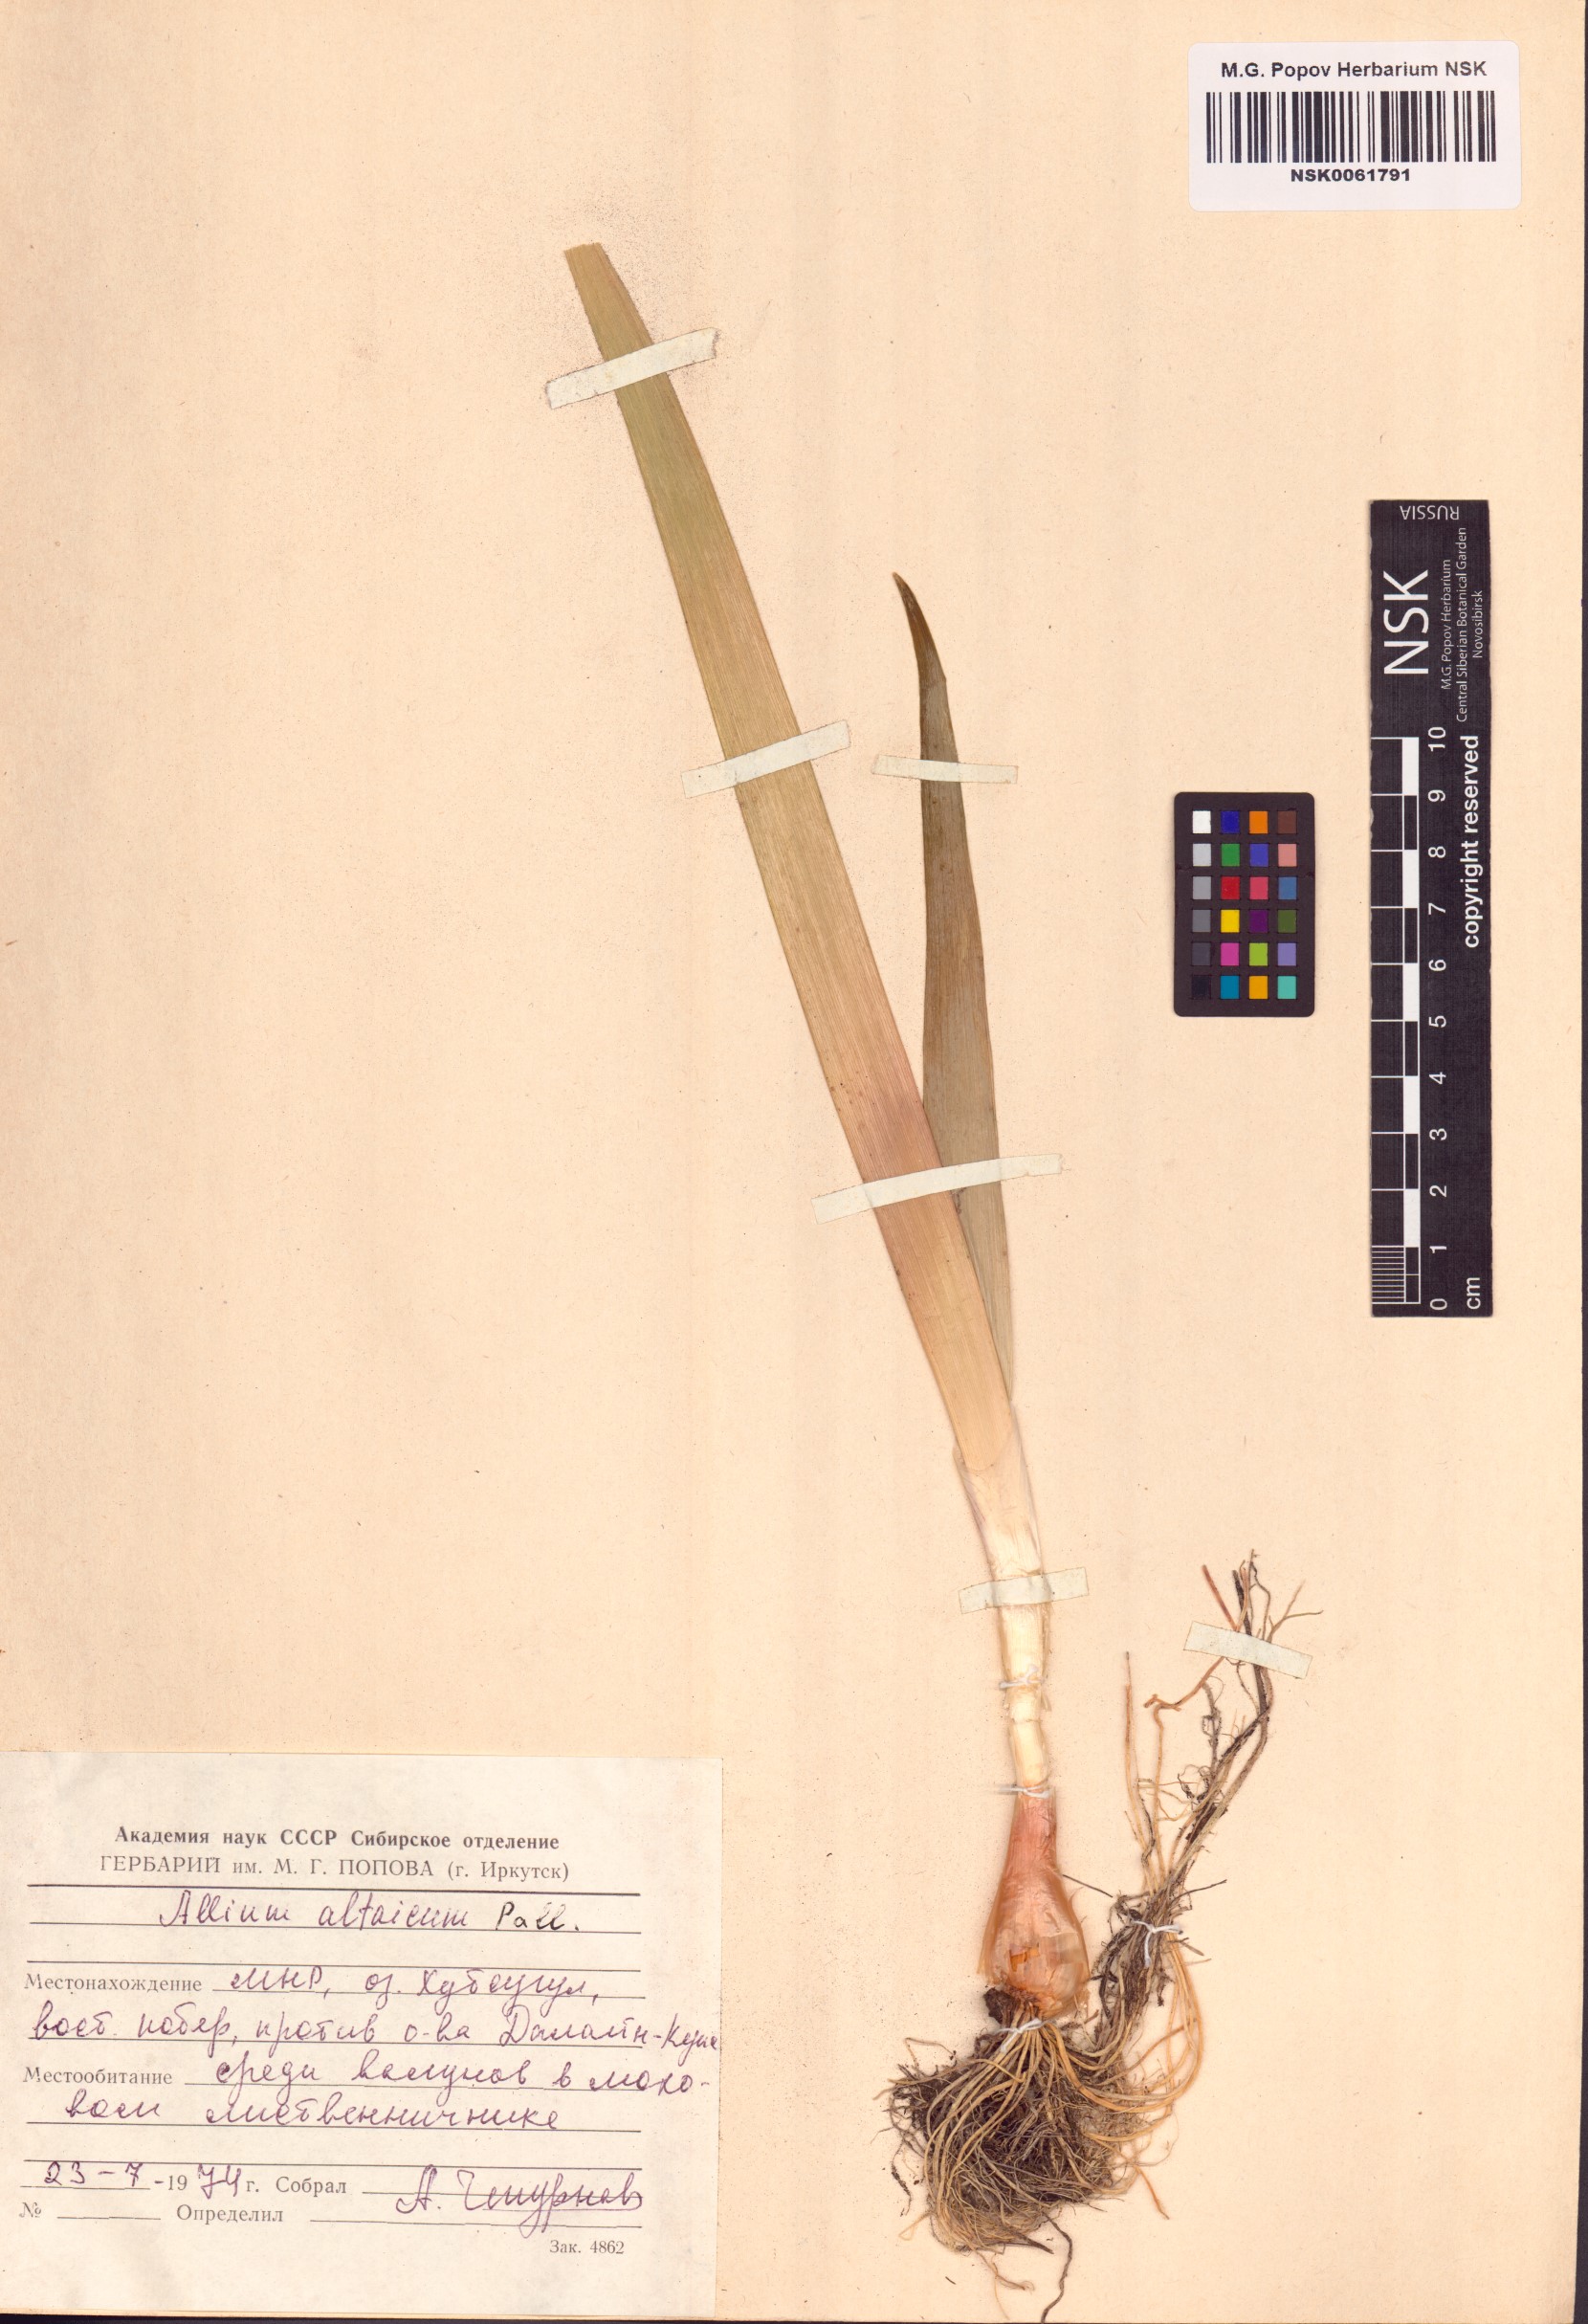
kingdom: Plantae
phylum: Tracheophyta
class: Liliopsida
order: Asparagales
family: Amaryllidaceae
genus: Allium
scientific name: Allium altaicum
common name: Altai onion
